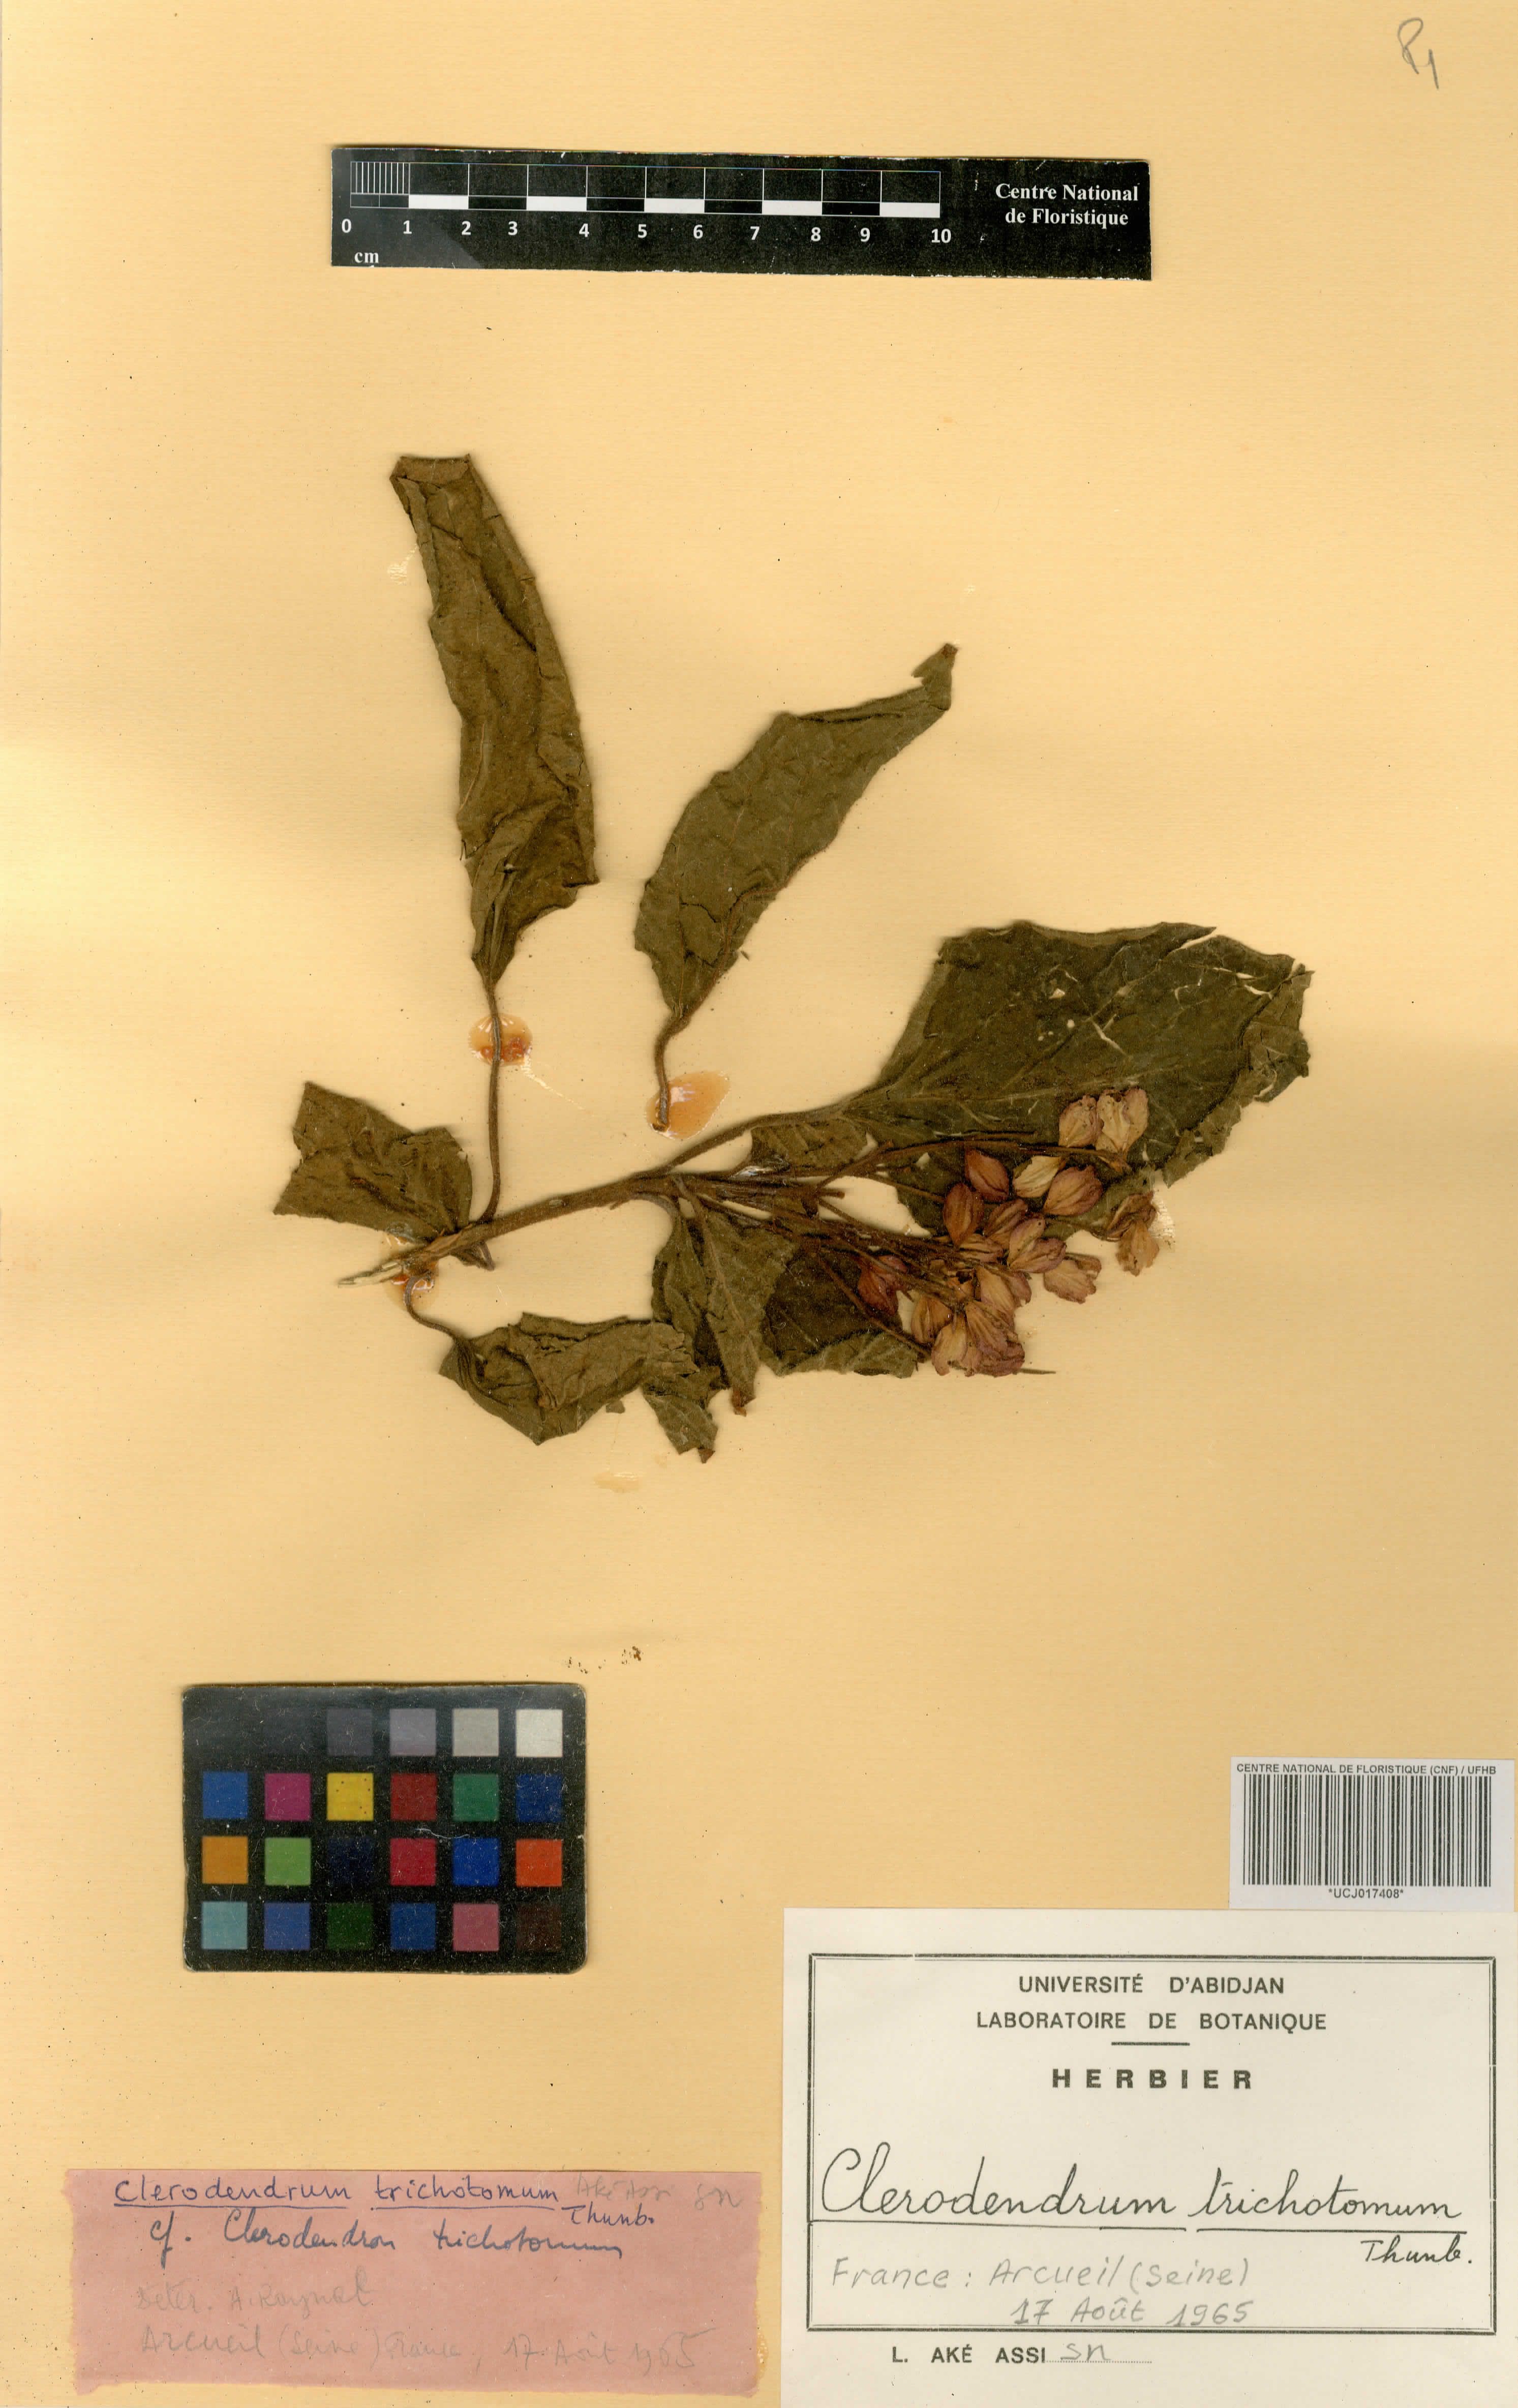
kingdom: Plantae
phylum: Tracheophyta
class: Magnoliopsida
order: Lamiales
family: Lamiaceae
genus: Clerodendrum
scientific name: Clerodendrum trichotomum
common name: Harlequin glorybower
